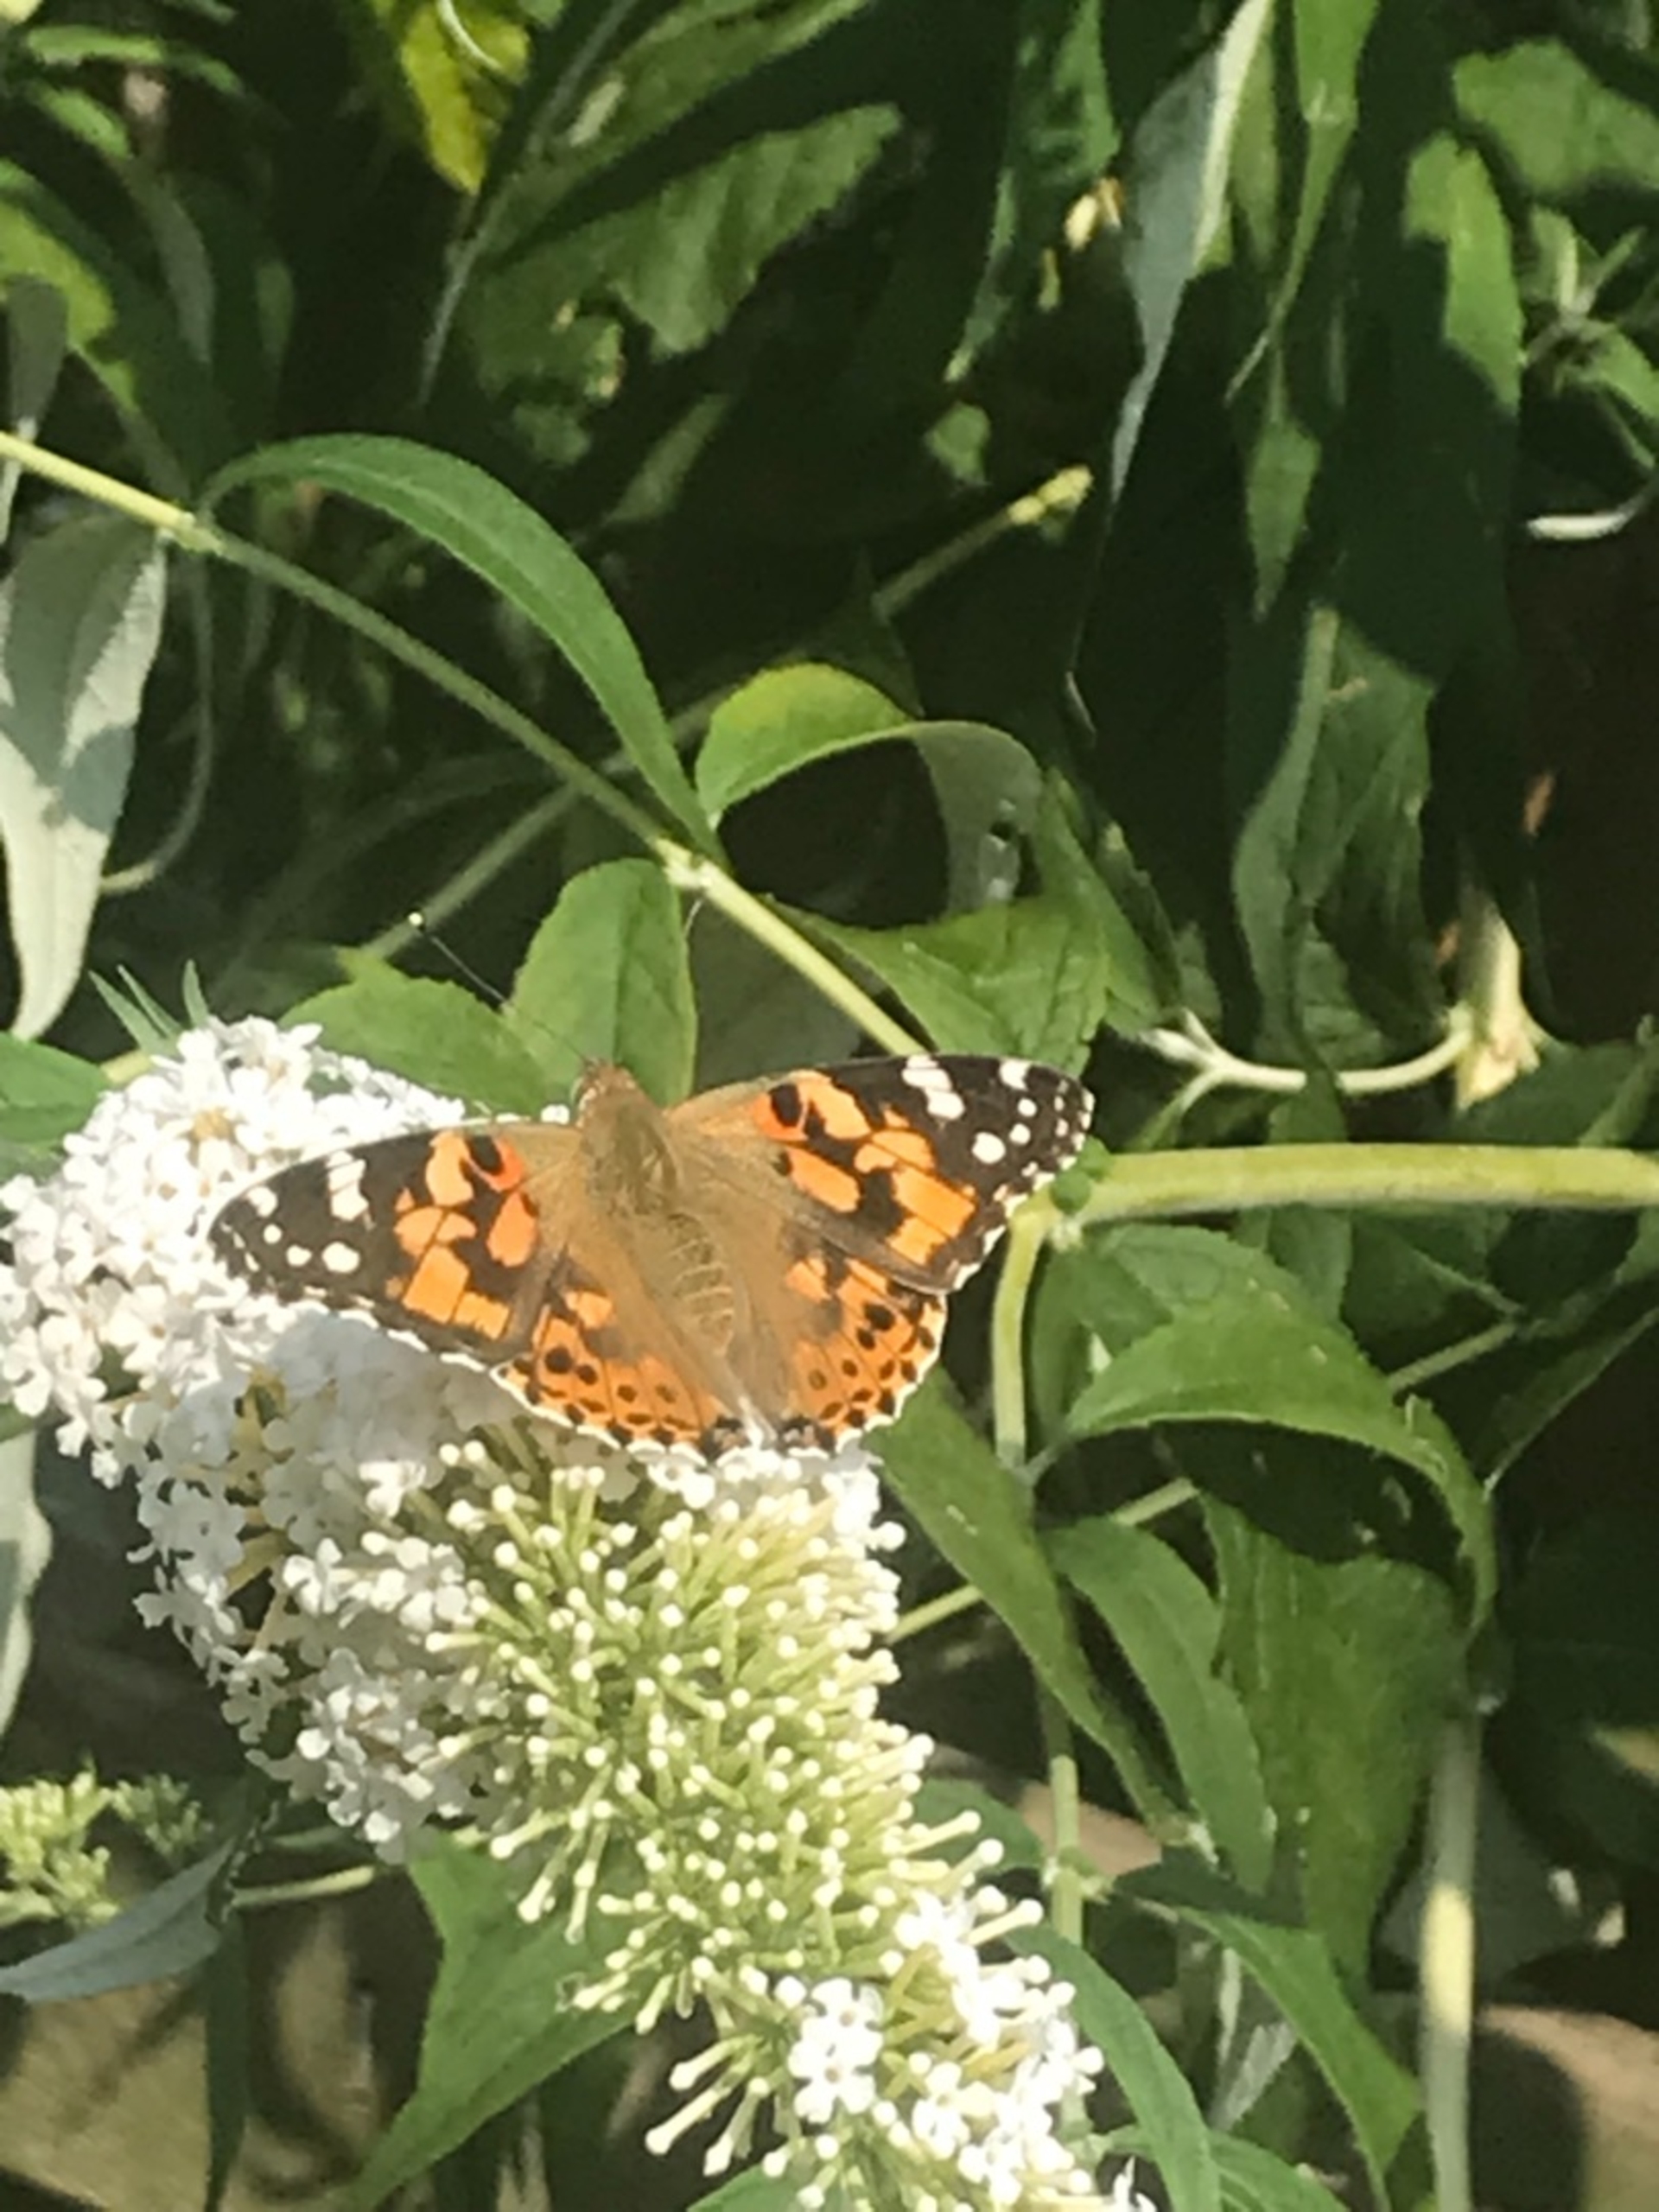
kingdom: Animalia
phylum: Arthropoda
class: Insecta
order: Lepidoptera
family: Nymphalidae
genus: Vanessa
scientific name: Vanessa cardui
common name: Tidselsommerfugl
